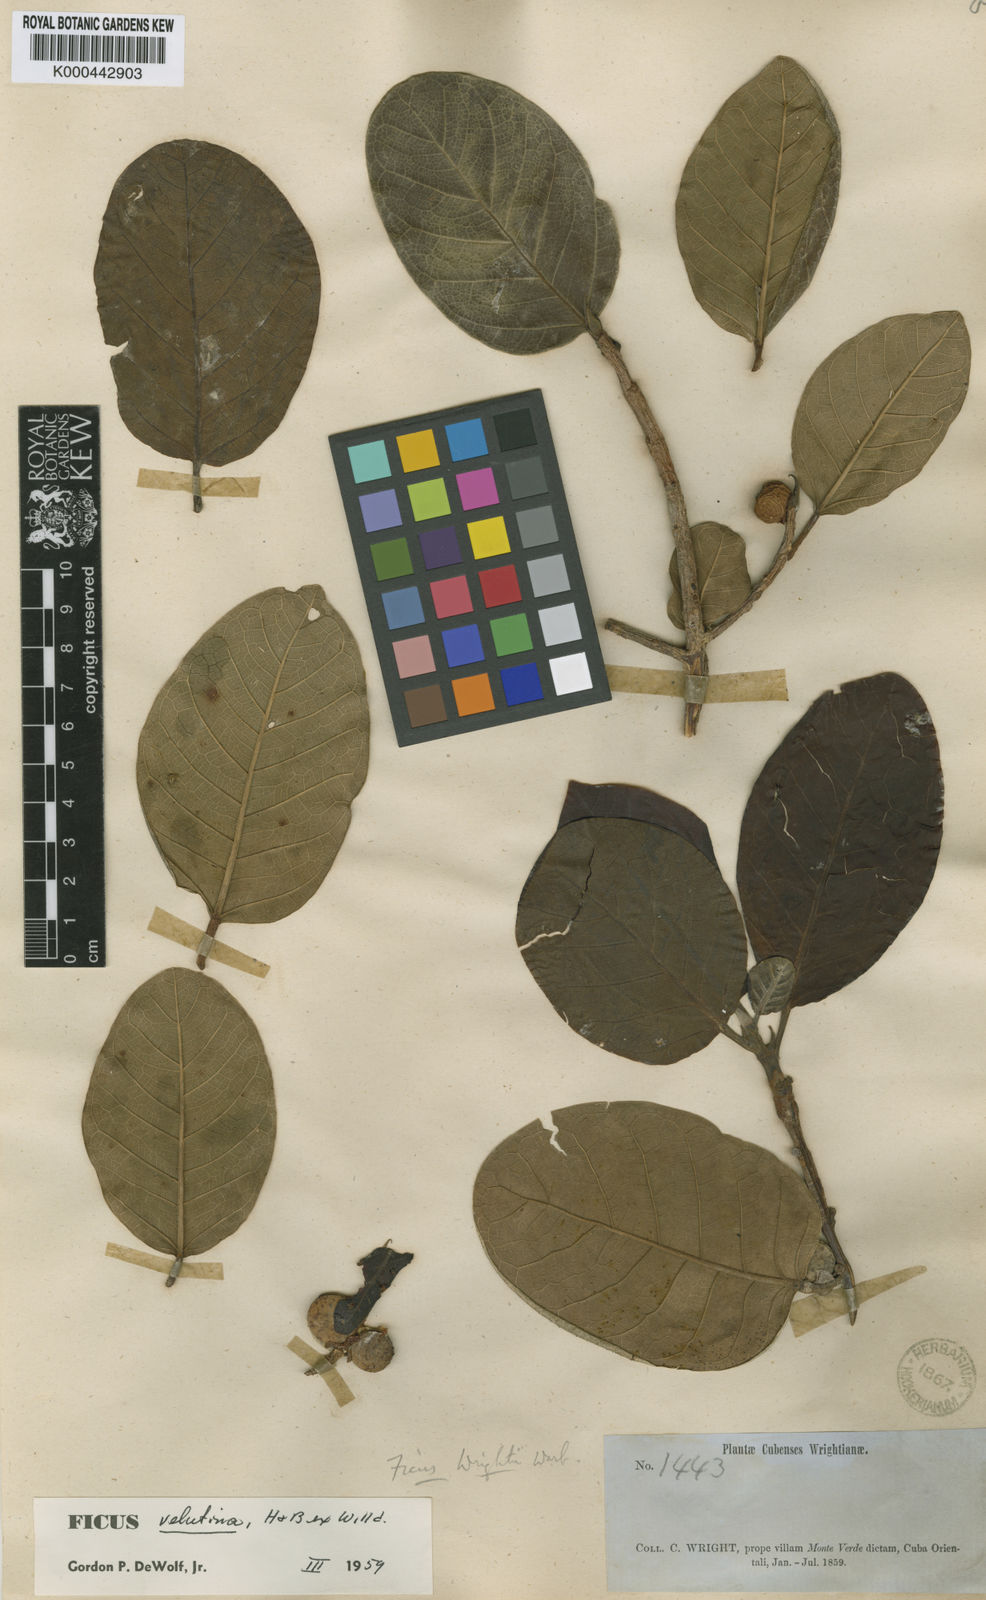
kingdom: Plantae
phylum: Tracheophyta
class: Magnoliopsida
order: Rosales
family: Moraceae
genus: Ficus
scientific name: Ficus velutina
